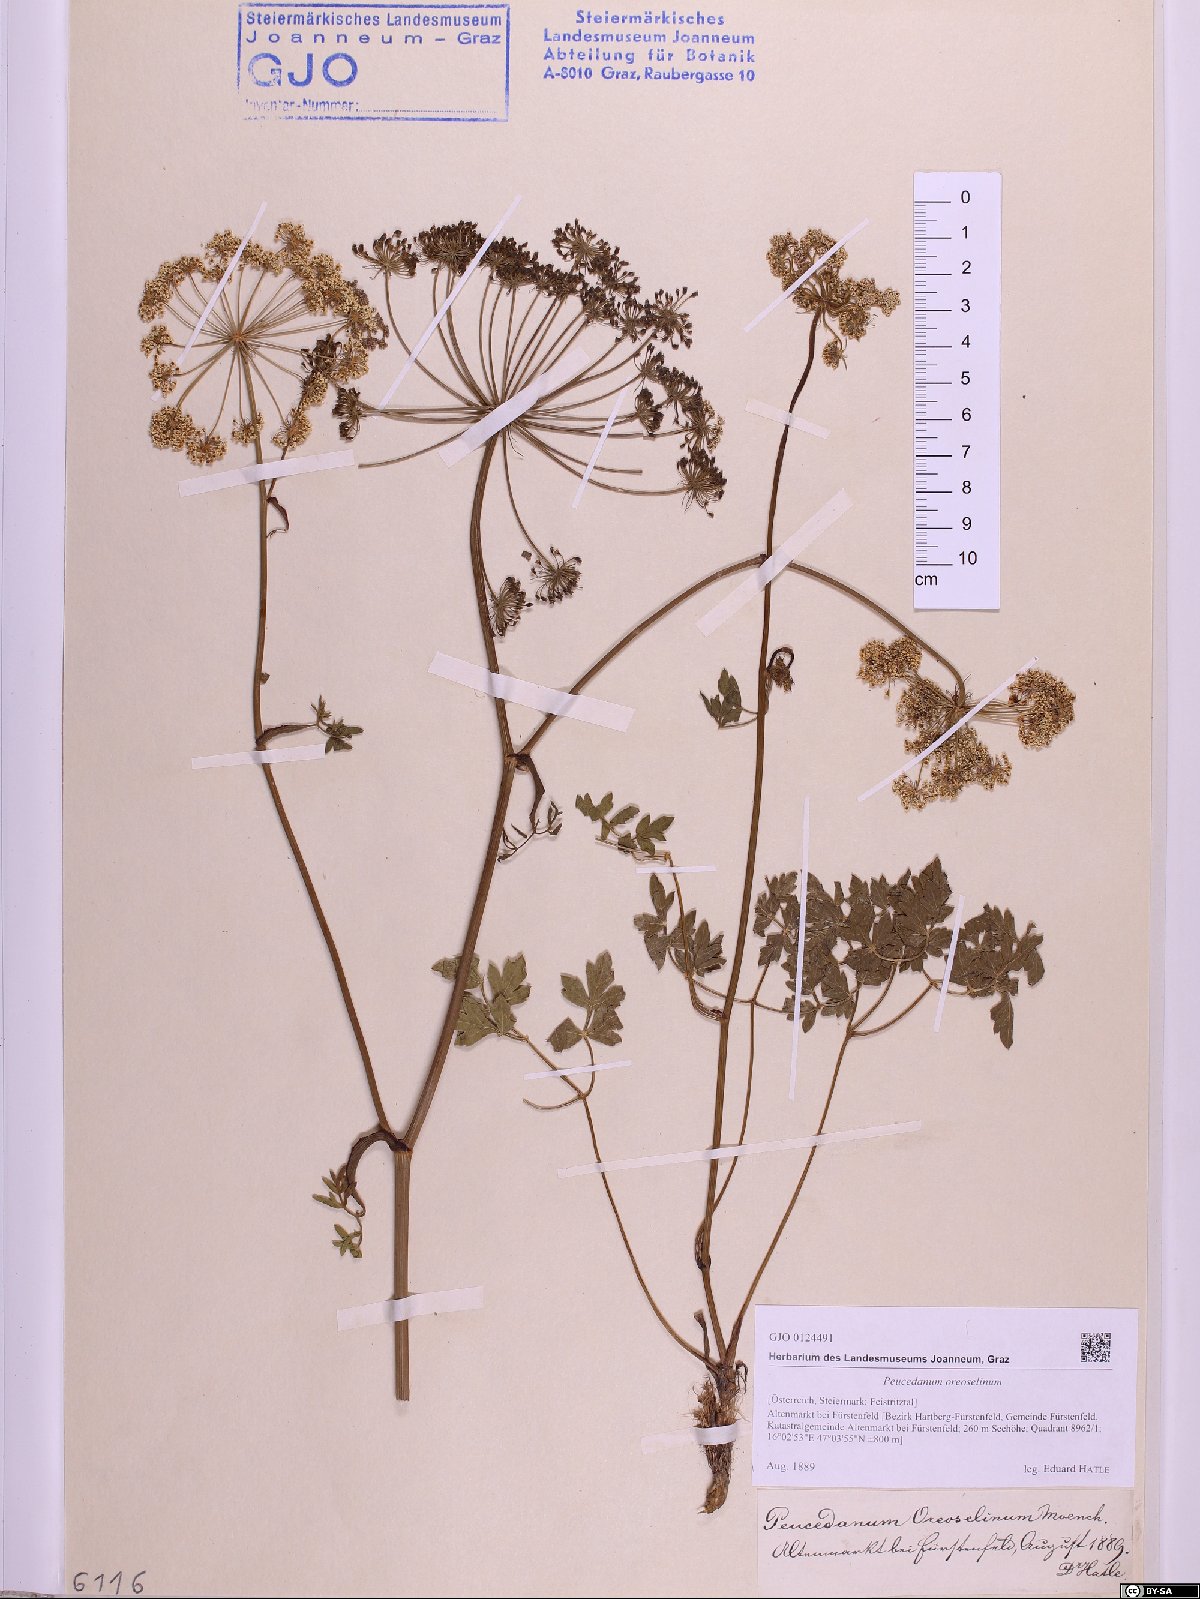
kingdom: Plantae
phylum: Tracheophyta
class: Magnoliopsida
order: Apiales
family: Apiaceae
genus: Oreoselinum
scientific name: Oreoselinum nigrum
